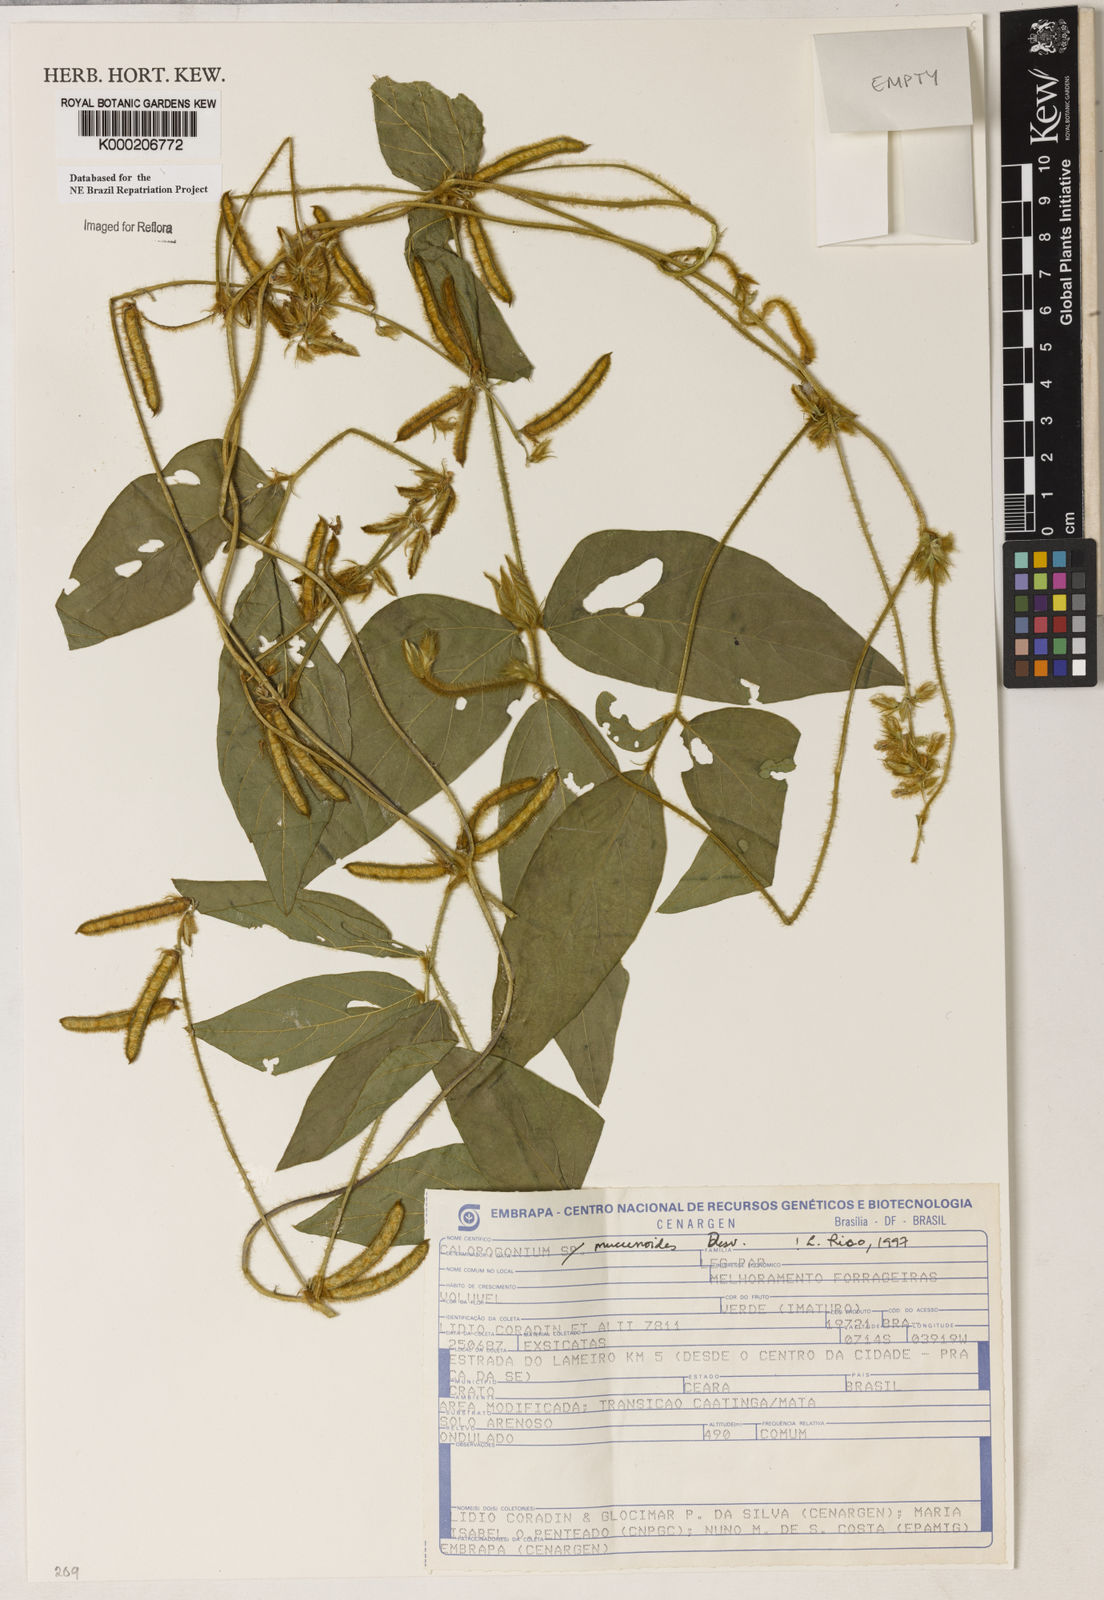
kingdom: Plantae
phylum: Tracheophyta
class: Magnoliopsida
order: Fabales
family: Fabaceae
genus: Calopogonium
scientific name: Calopogonium mucunoides
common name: Calopo
